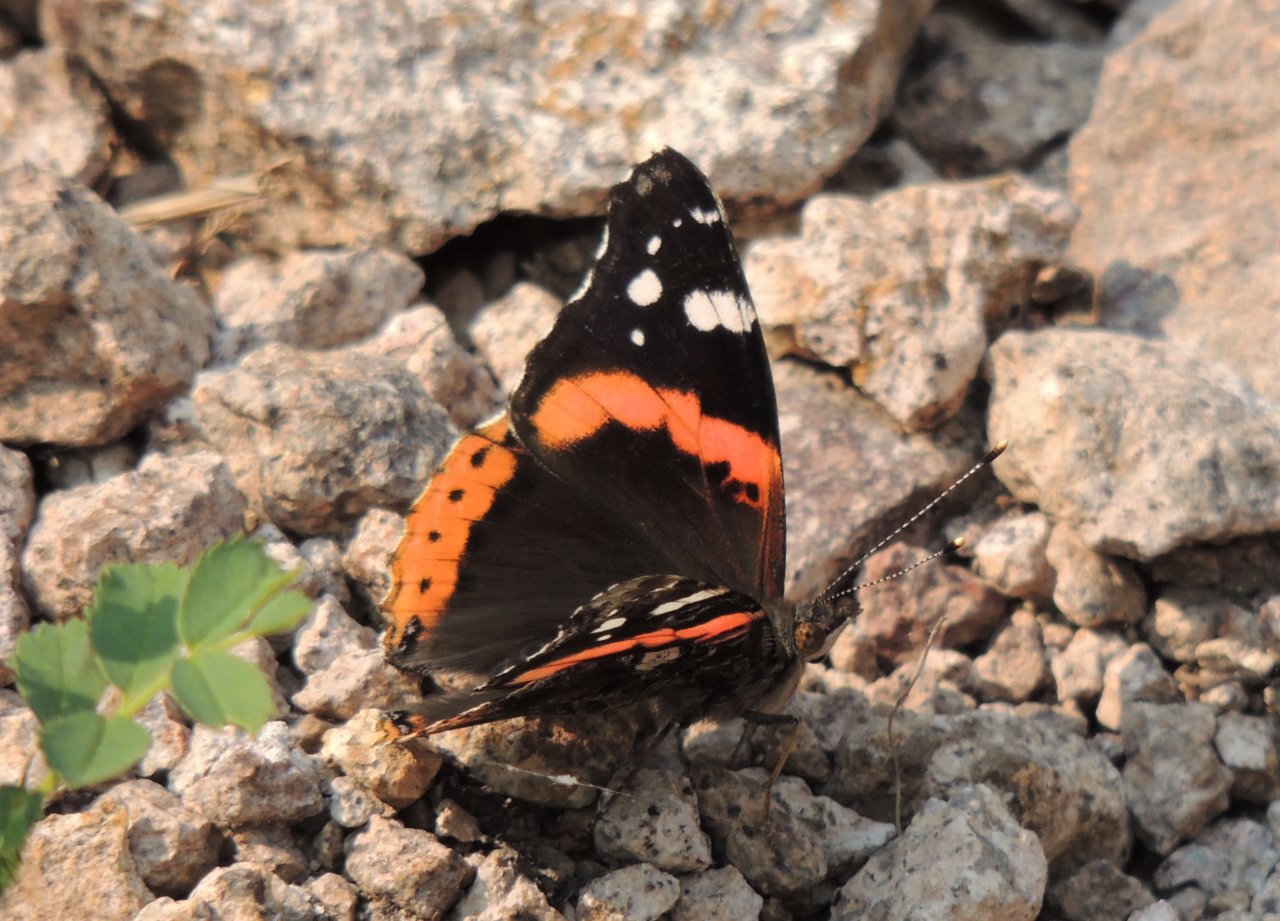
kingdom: Animalia
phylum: Arthropoda
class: Insecta
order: Lepidoptera
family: Nymphalidae
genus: Vanessa
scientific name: Vanessa atalanta
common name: Red Admiral
